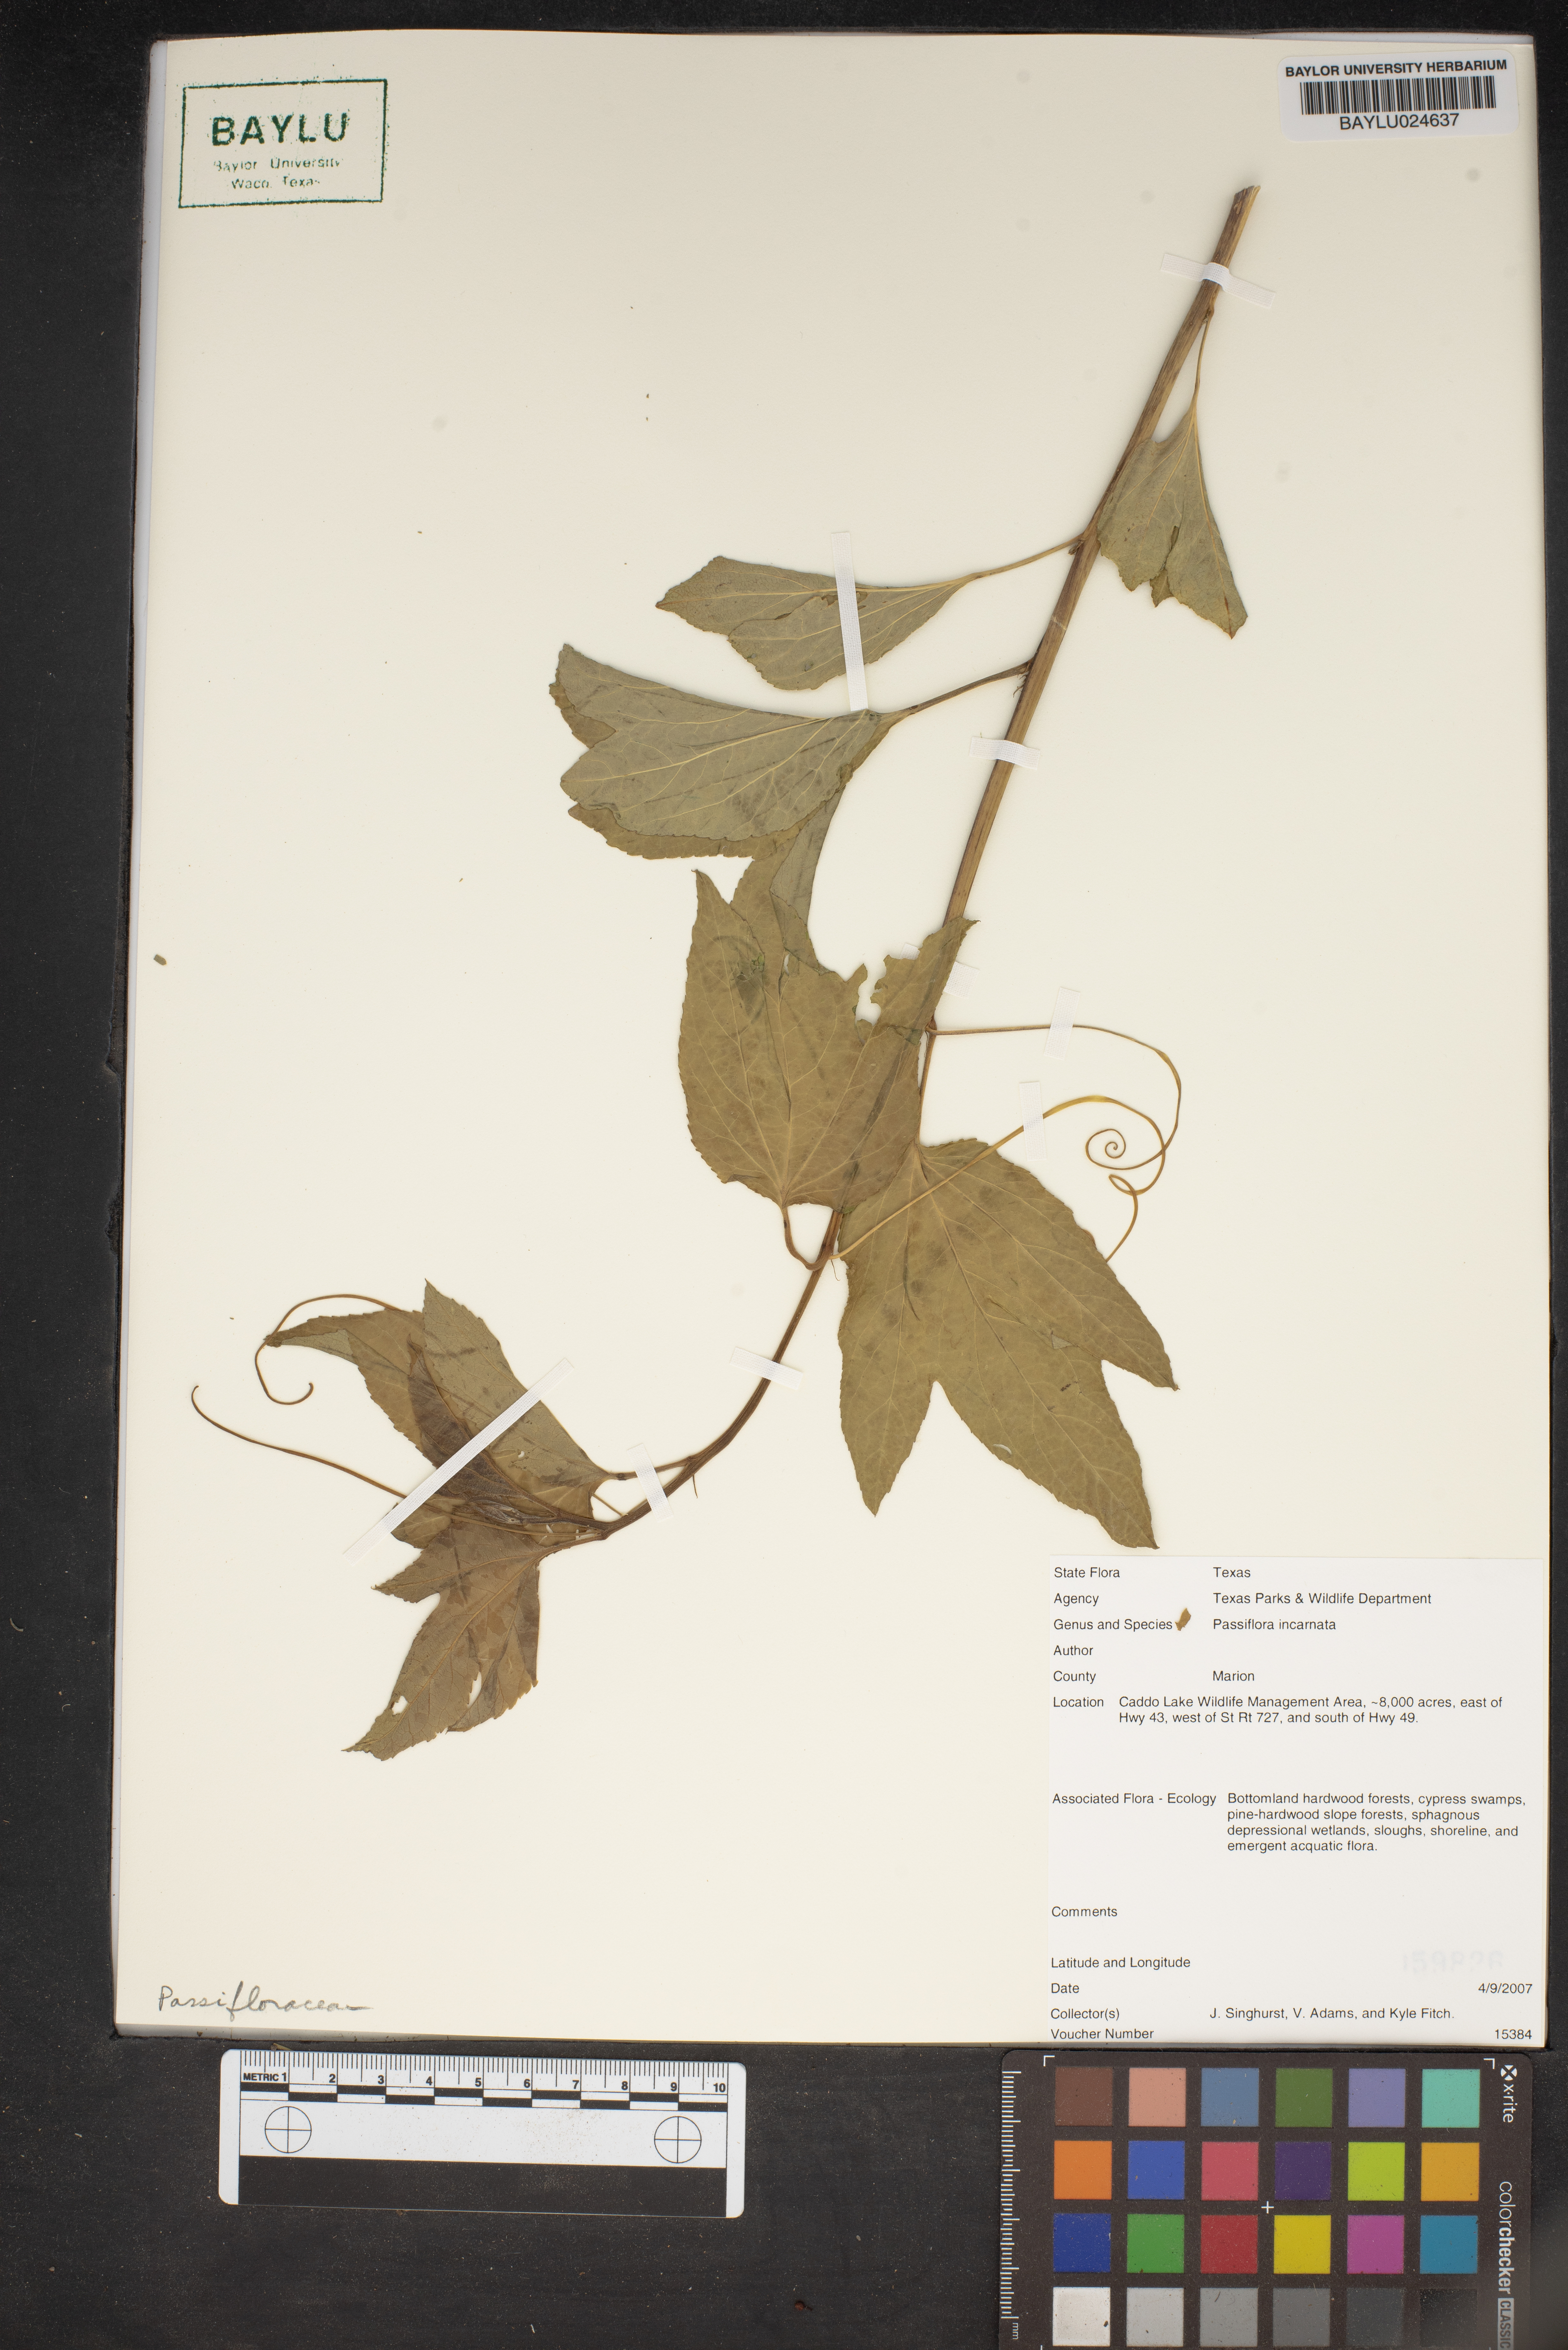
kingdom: Plantae
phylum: Tracheophyta
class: Magnoliopsida
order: Malpighiales
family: Passifloraceae
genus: Passiflora
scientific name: Passiflora incarnata
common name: Apricot-vine
